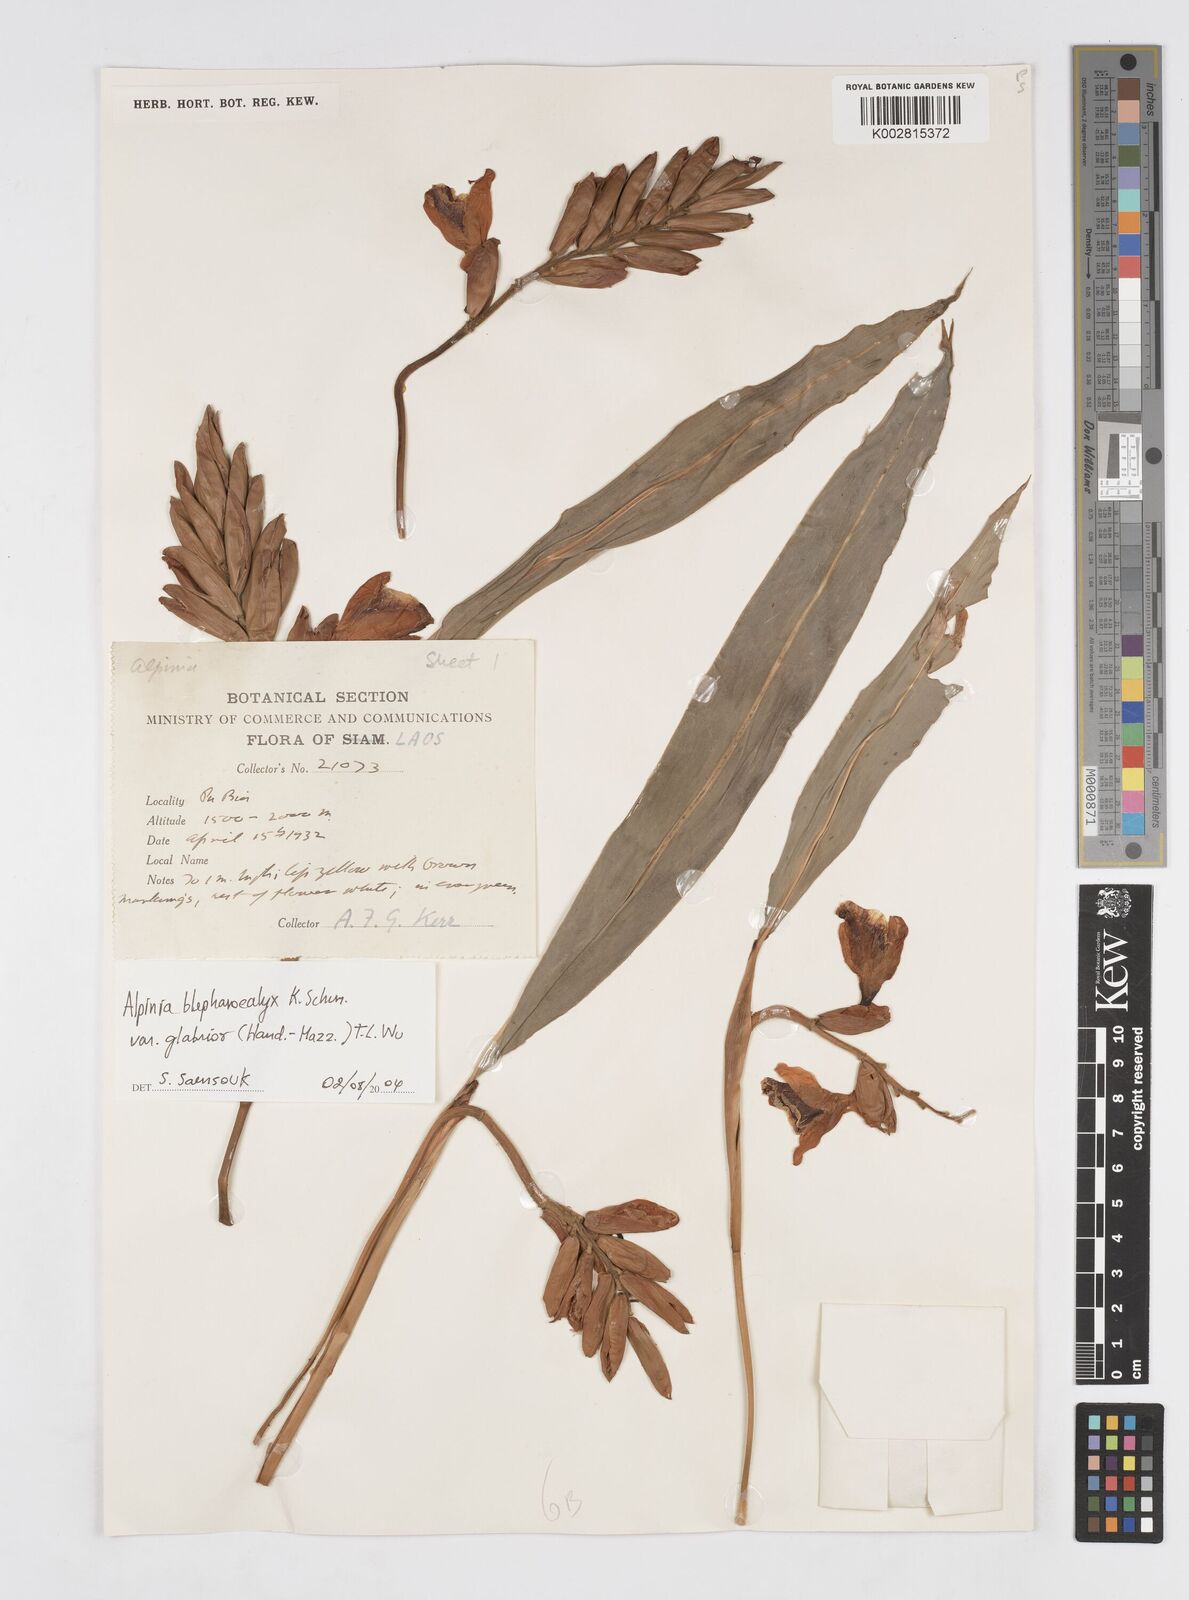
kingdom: Plantae
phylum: Tracheophyta
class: Liliopsida
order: Zingiberales
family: Zingiberaceae
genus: Alpinia
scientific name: Alpinia roxburghii
